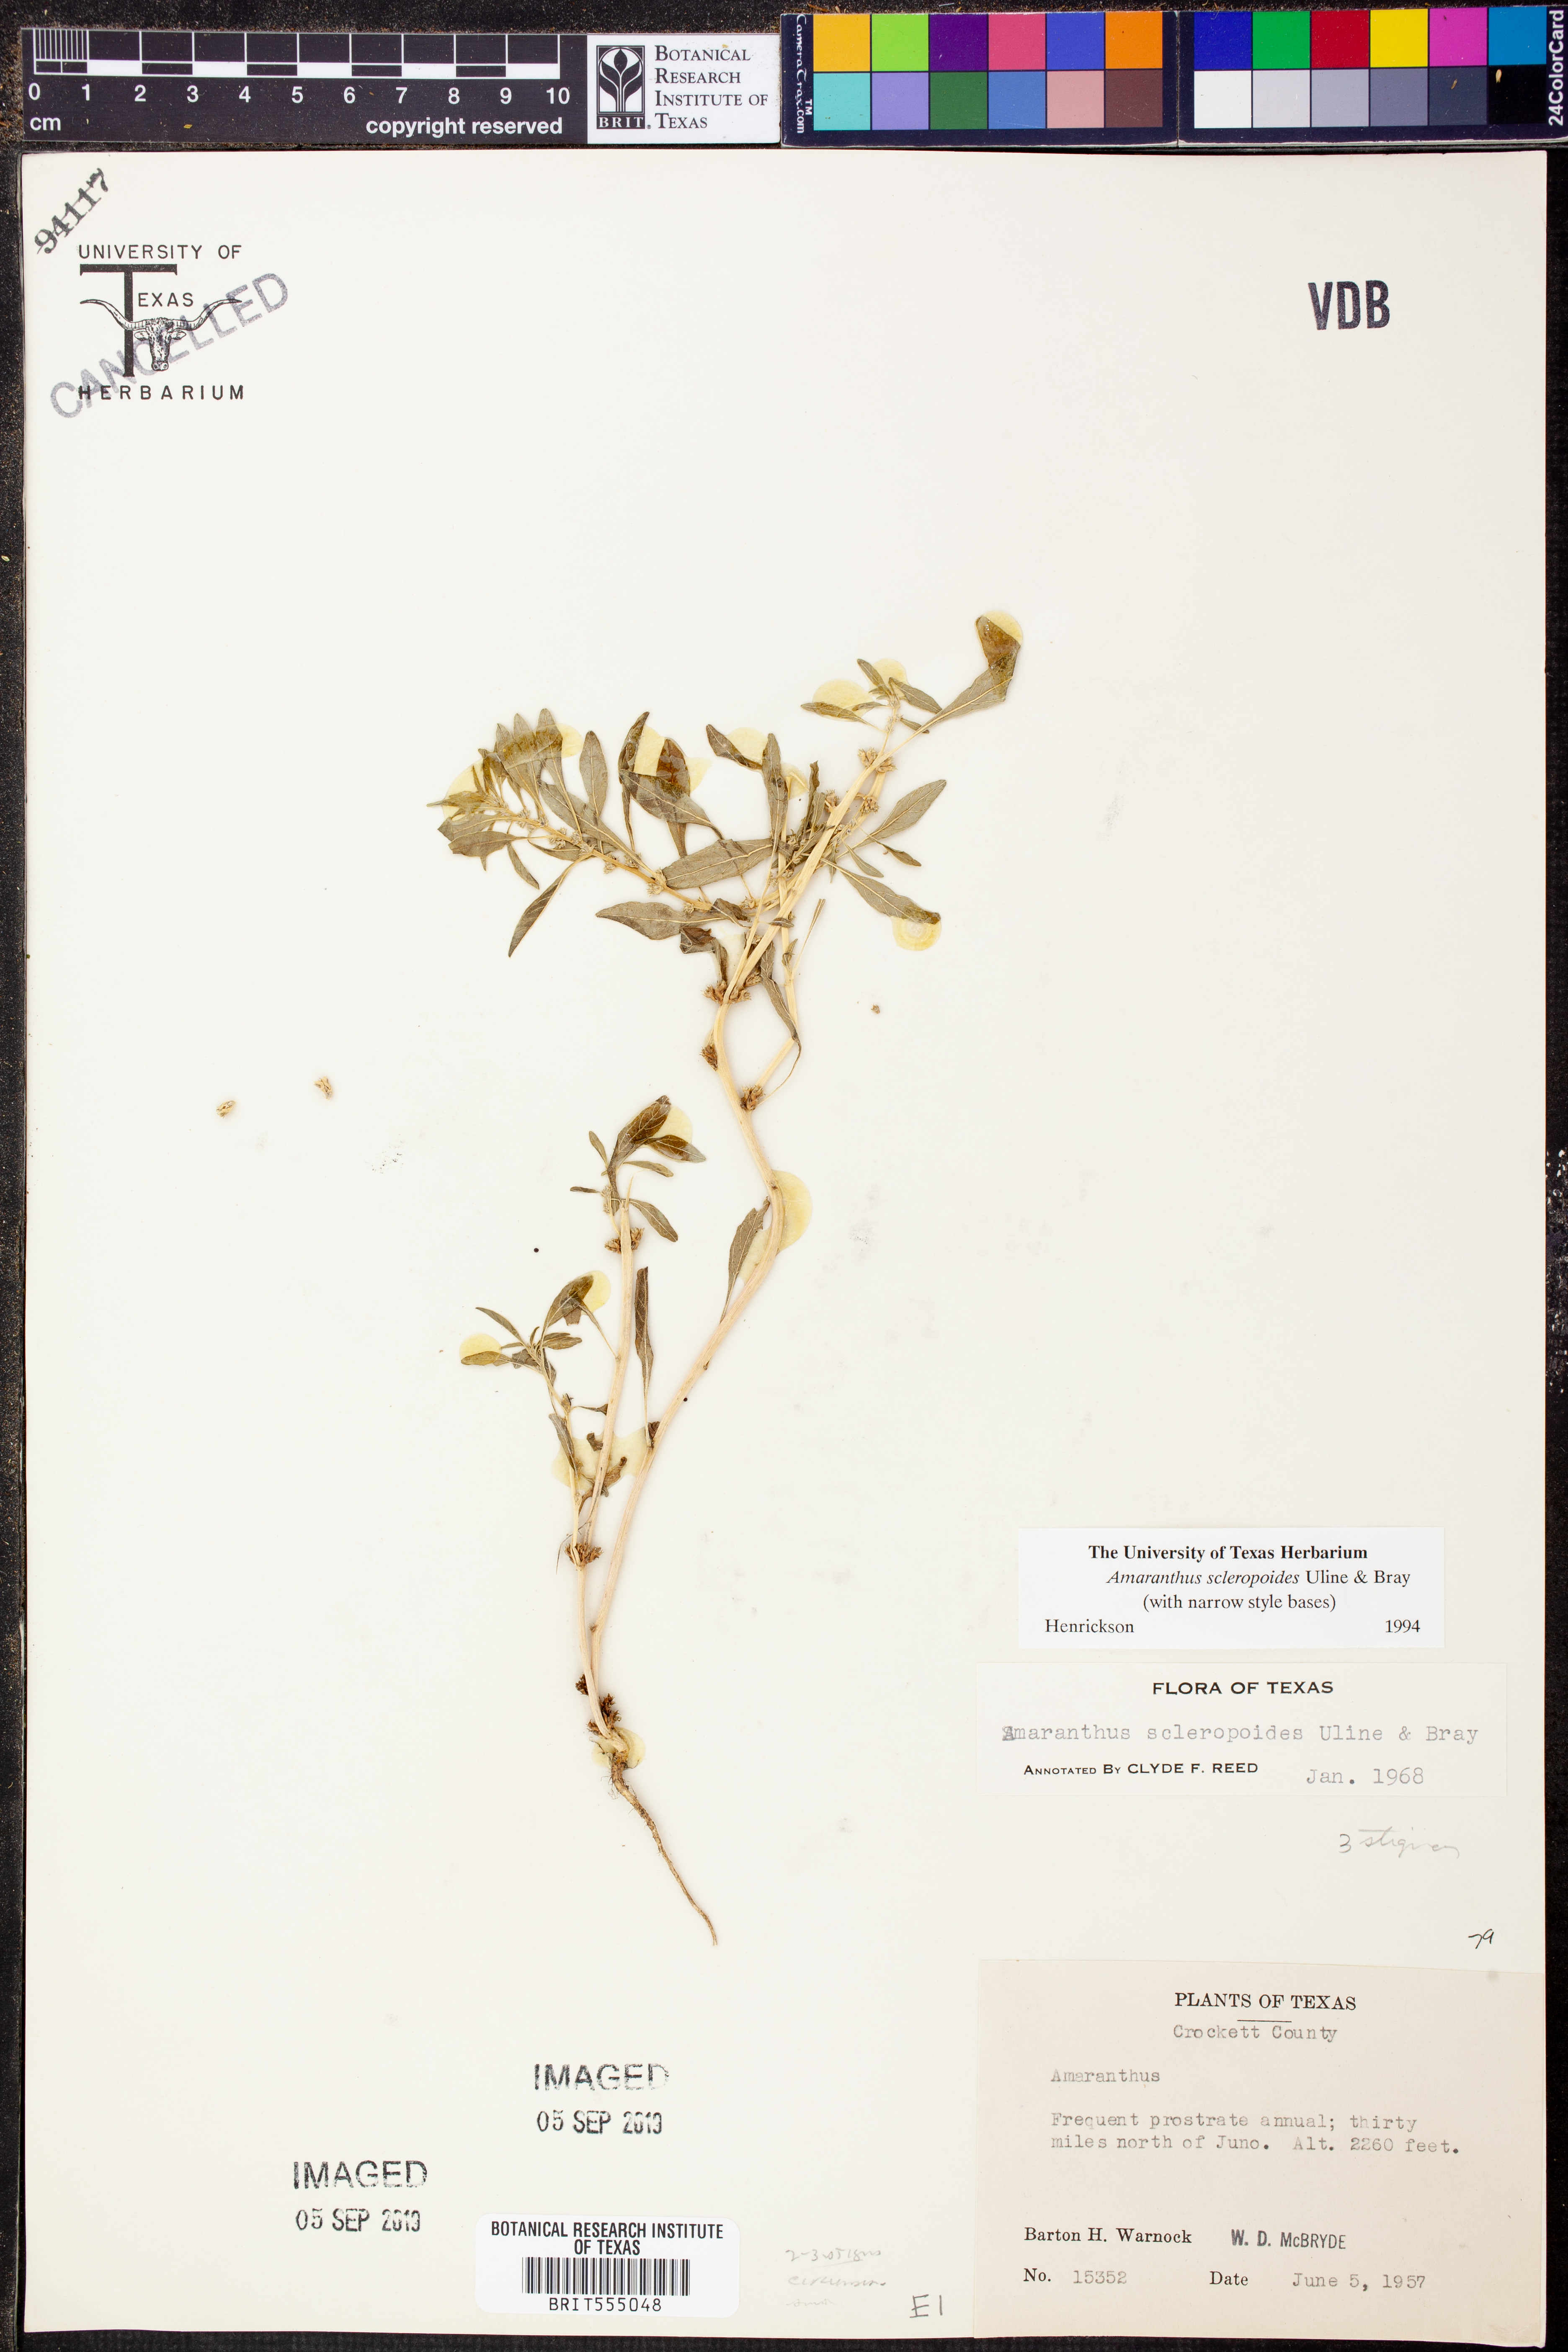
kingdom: Plantae
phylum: Tracheophyta
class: Magnoliopsida
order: Caryophyllales
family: Amaranthaceae
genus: Amaranthus
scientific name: Amaranthus scleropoides
